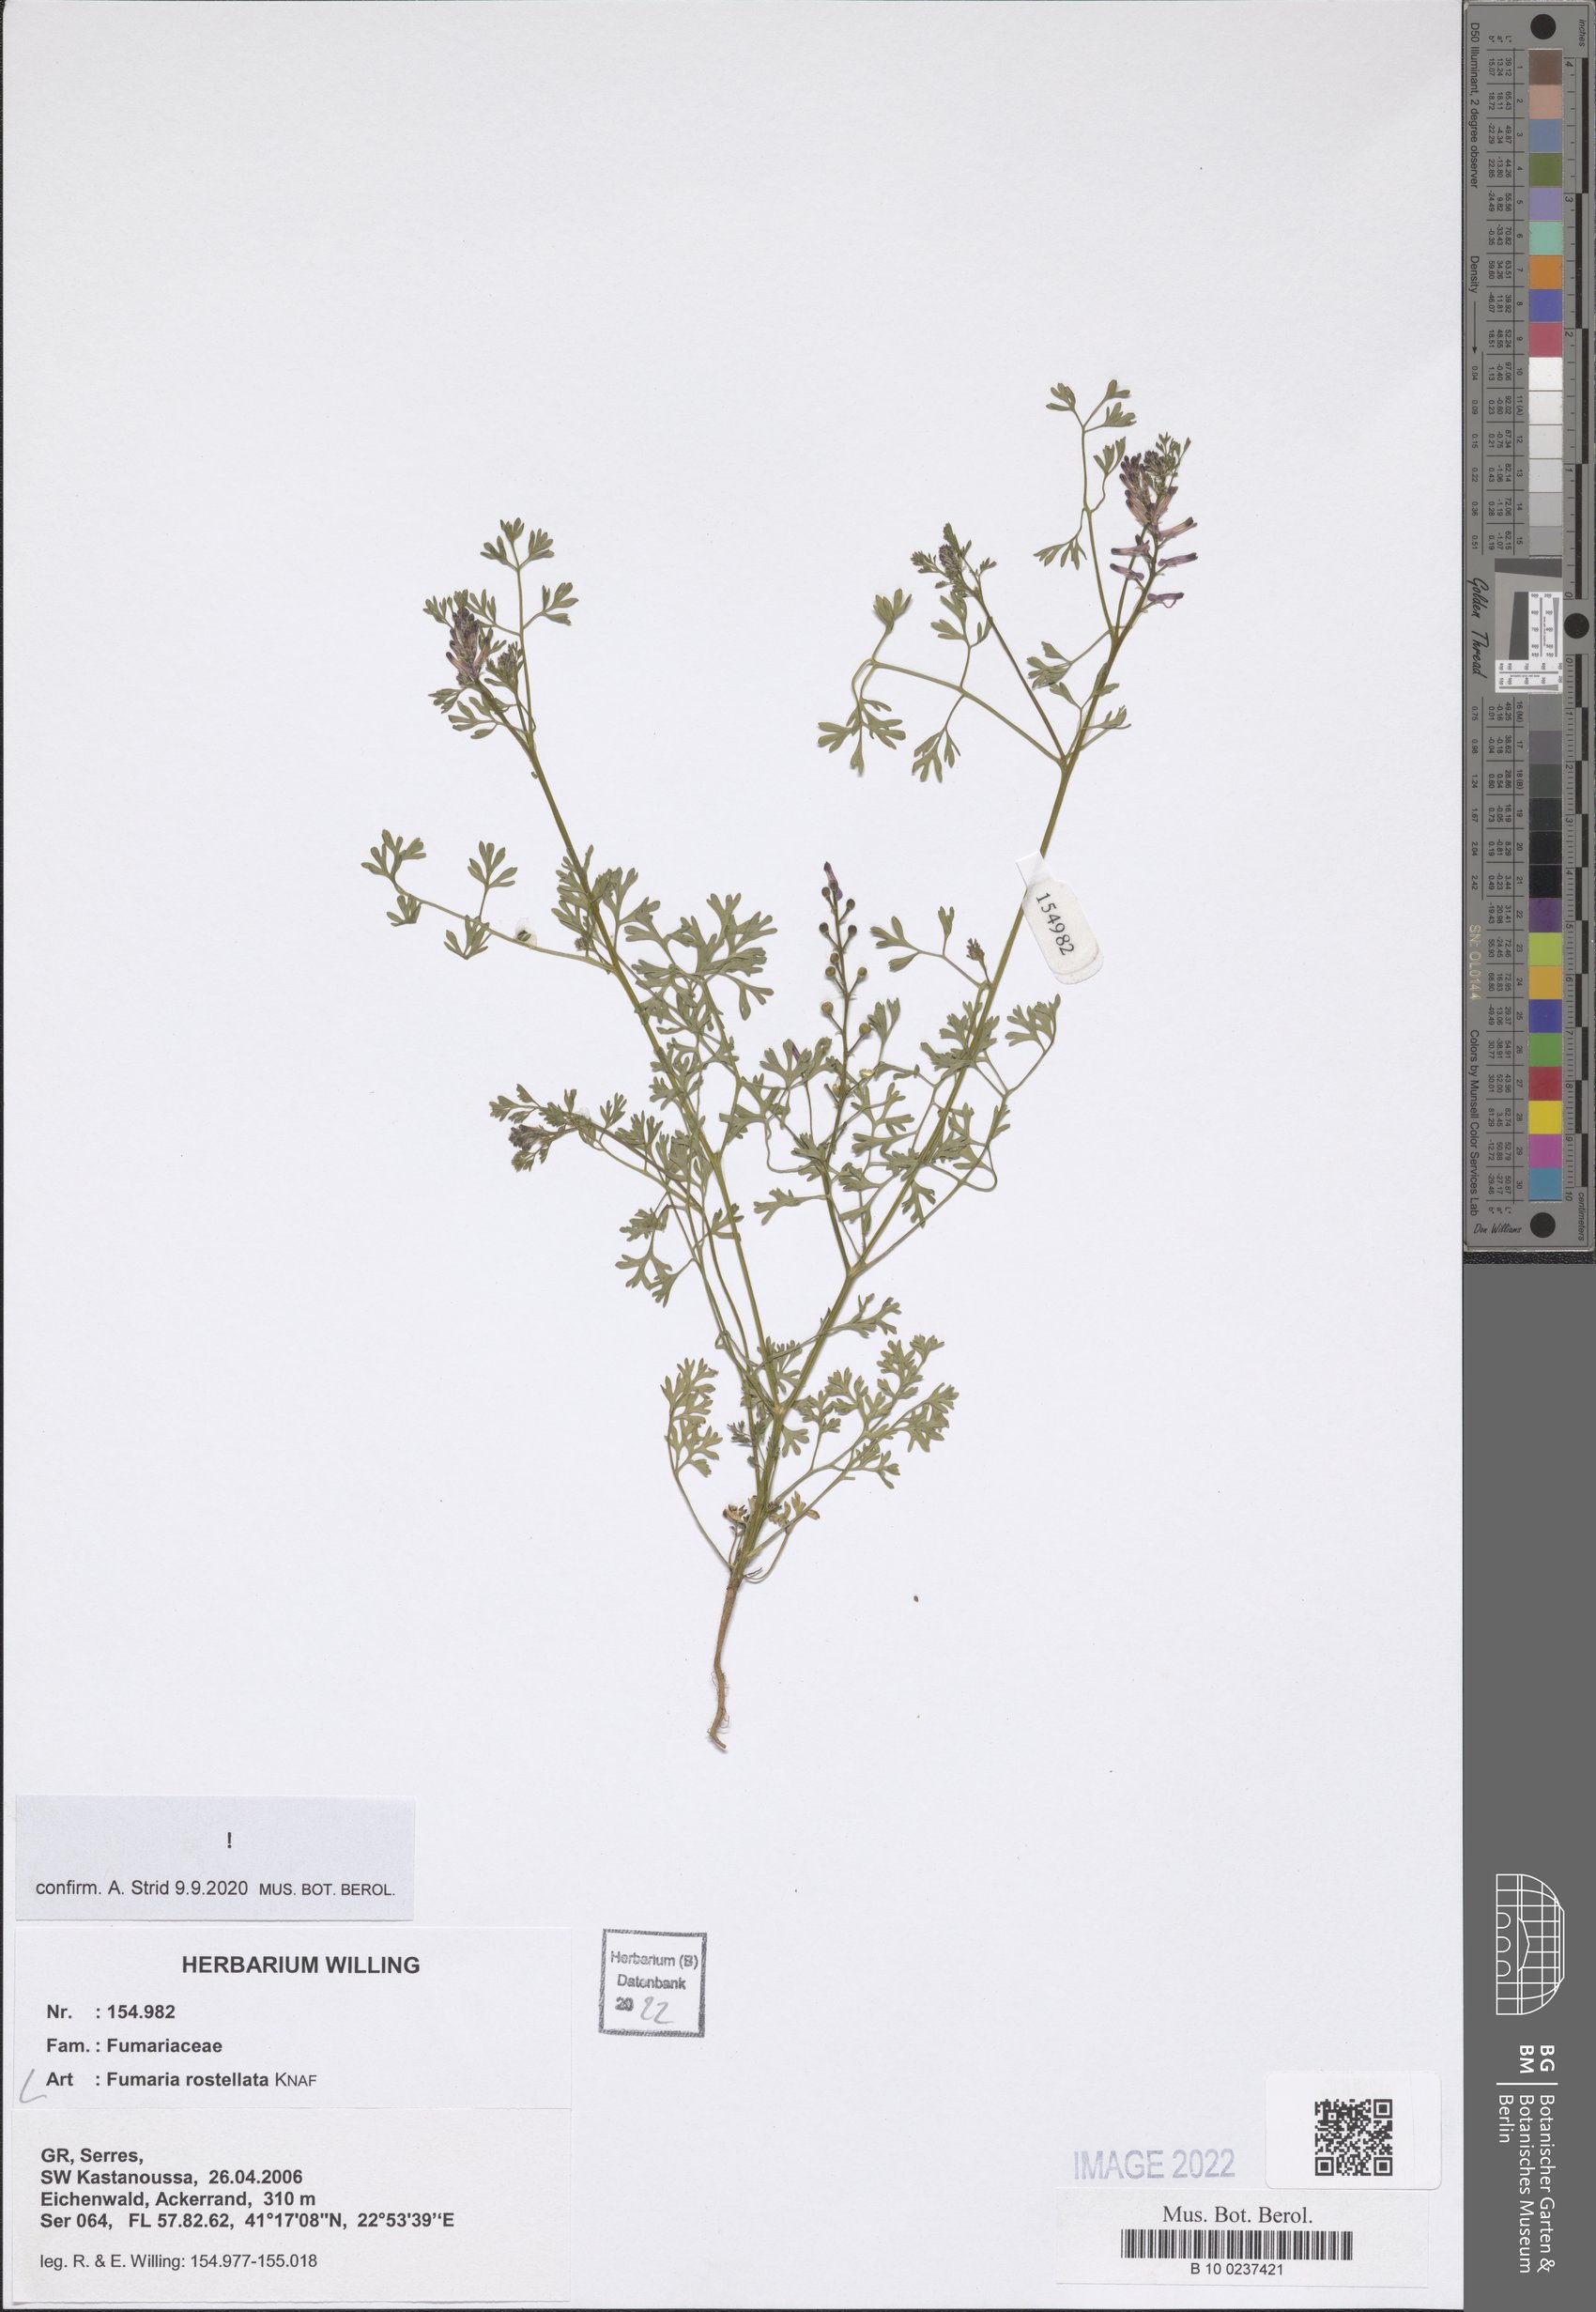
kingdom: Plantae
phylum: Tracheophyta
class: Magnoliopsida
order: Ranunculales
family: Papaveraceae
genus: Fumaria
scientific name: Fumaria rostellata
